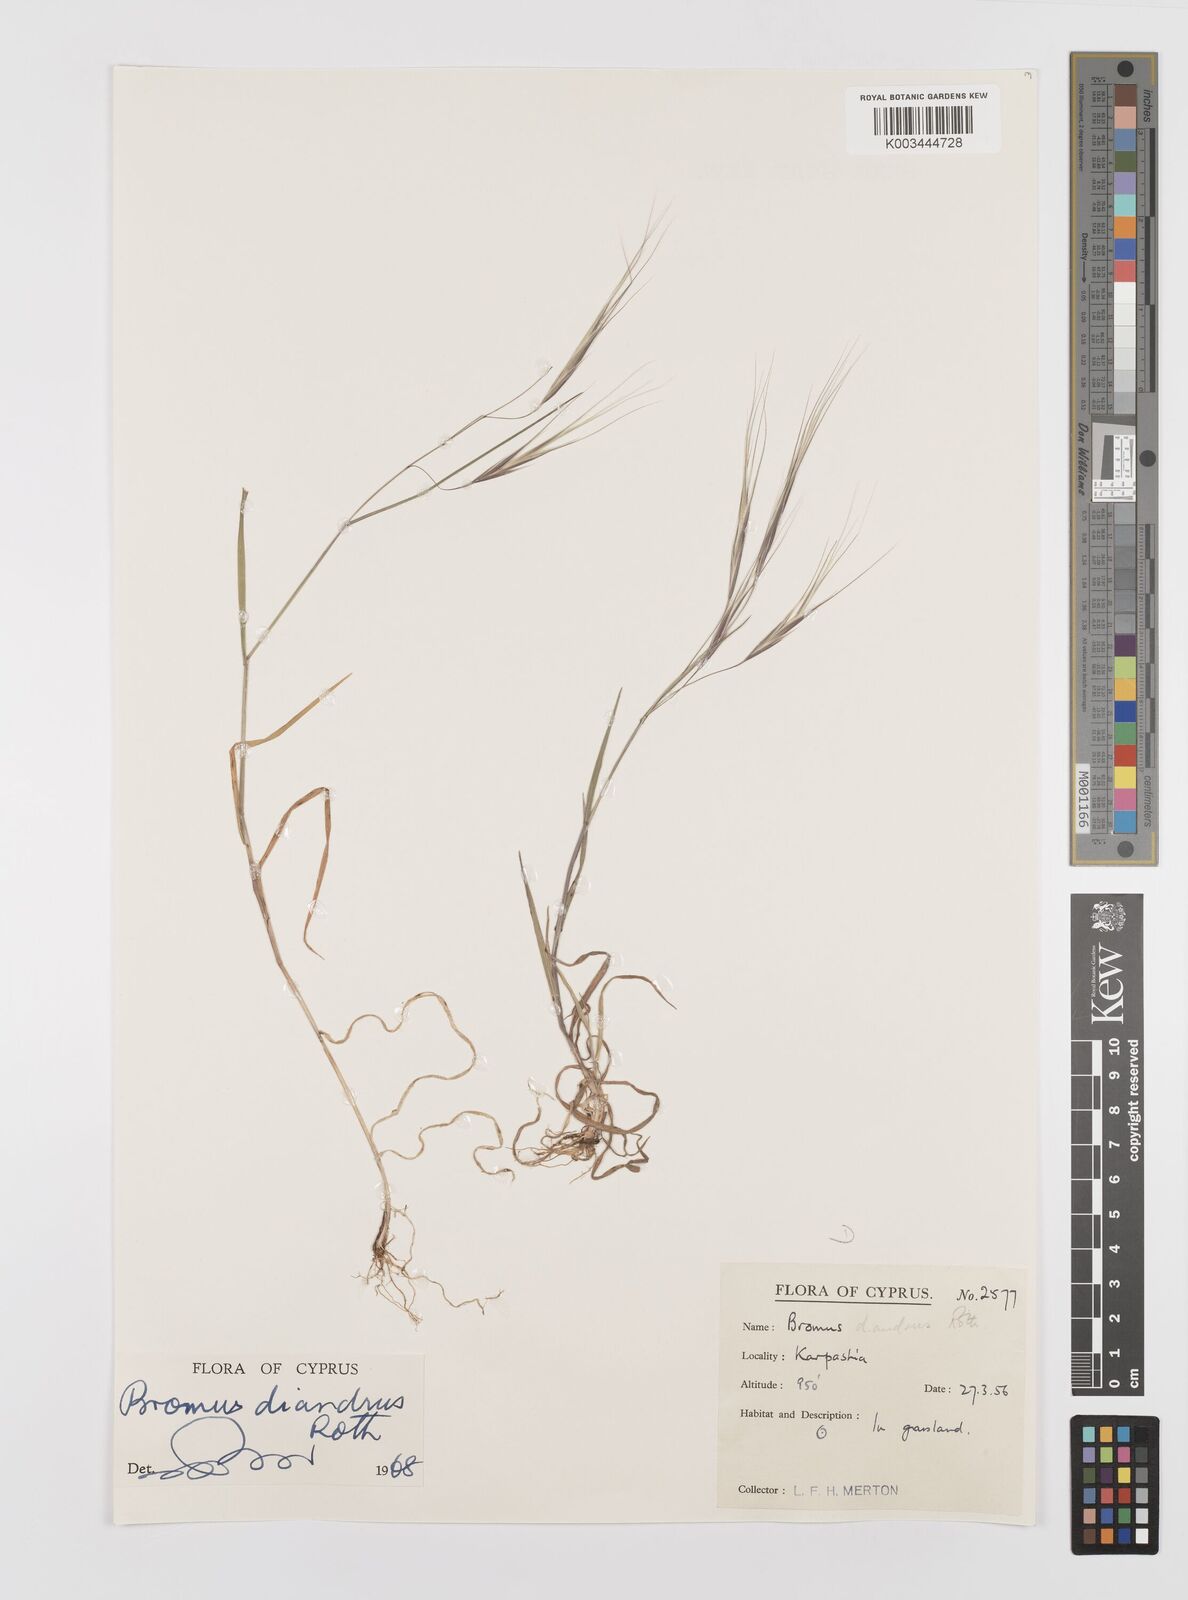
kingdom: Plantae
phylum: Tracheophyta
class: Liliopsida
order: Poales
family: Poaceae
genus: Bromus
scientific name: Bromus diandrus
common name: Ripgut brome
